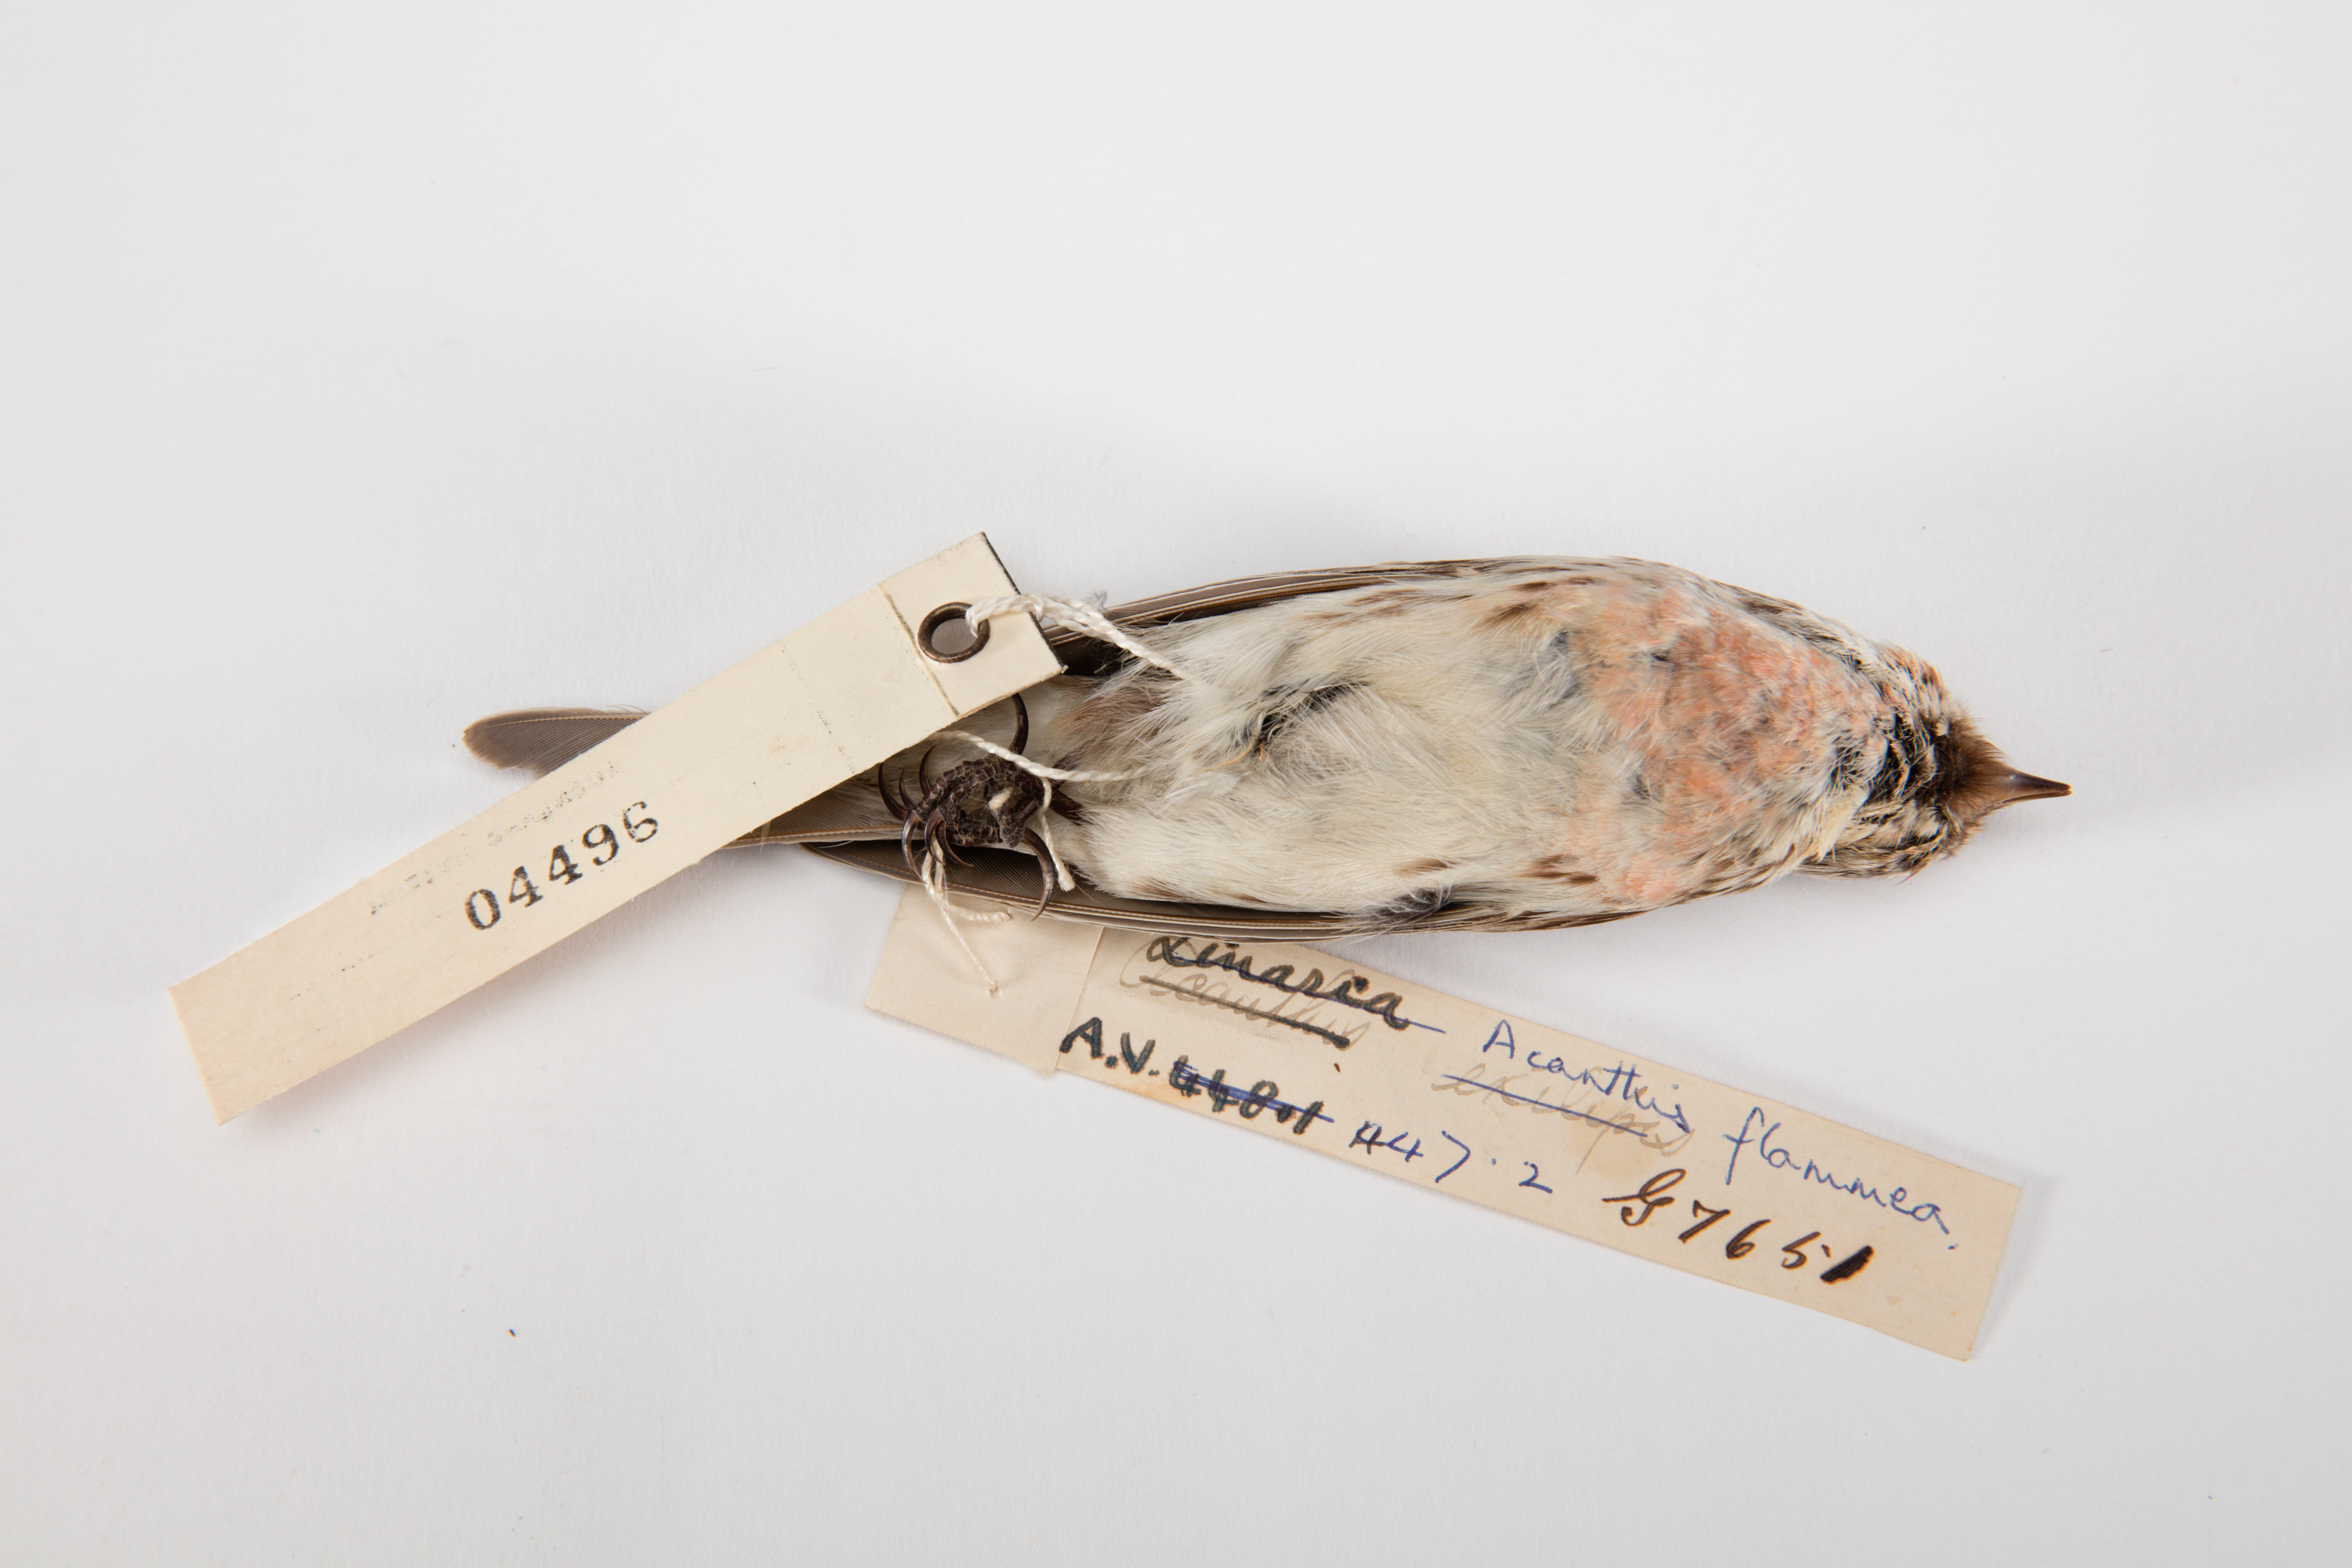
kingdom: Animalia
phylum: Chordata
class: Aves
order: Passeriformes
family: Fringillidae
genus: Acanthis
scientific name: Acanthis flammea
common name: Common redpoll
